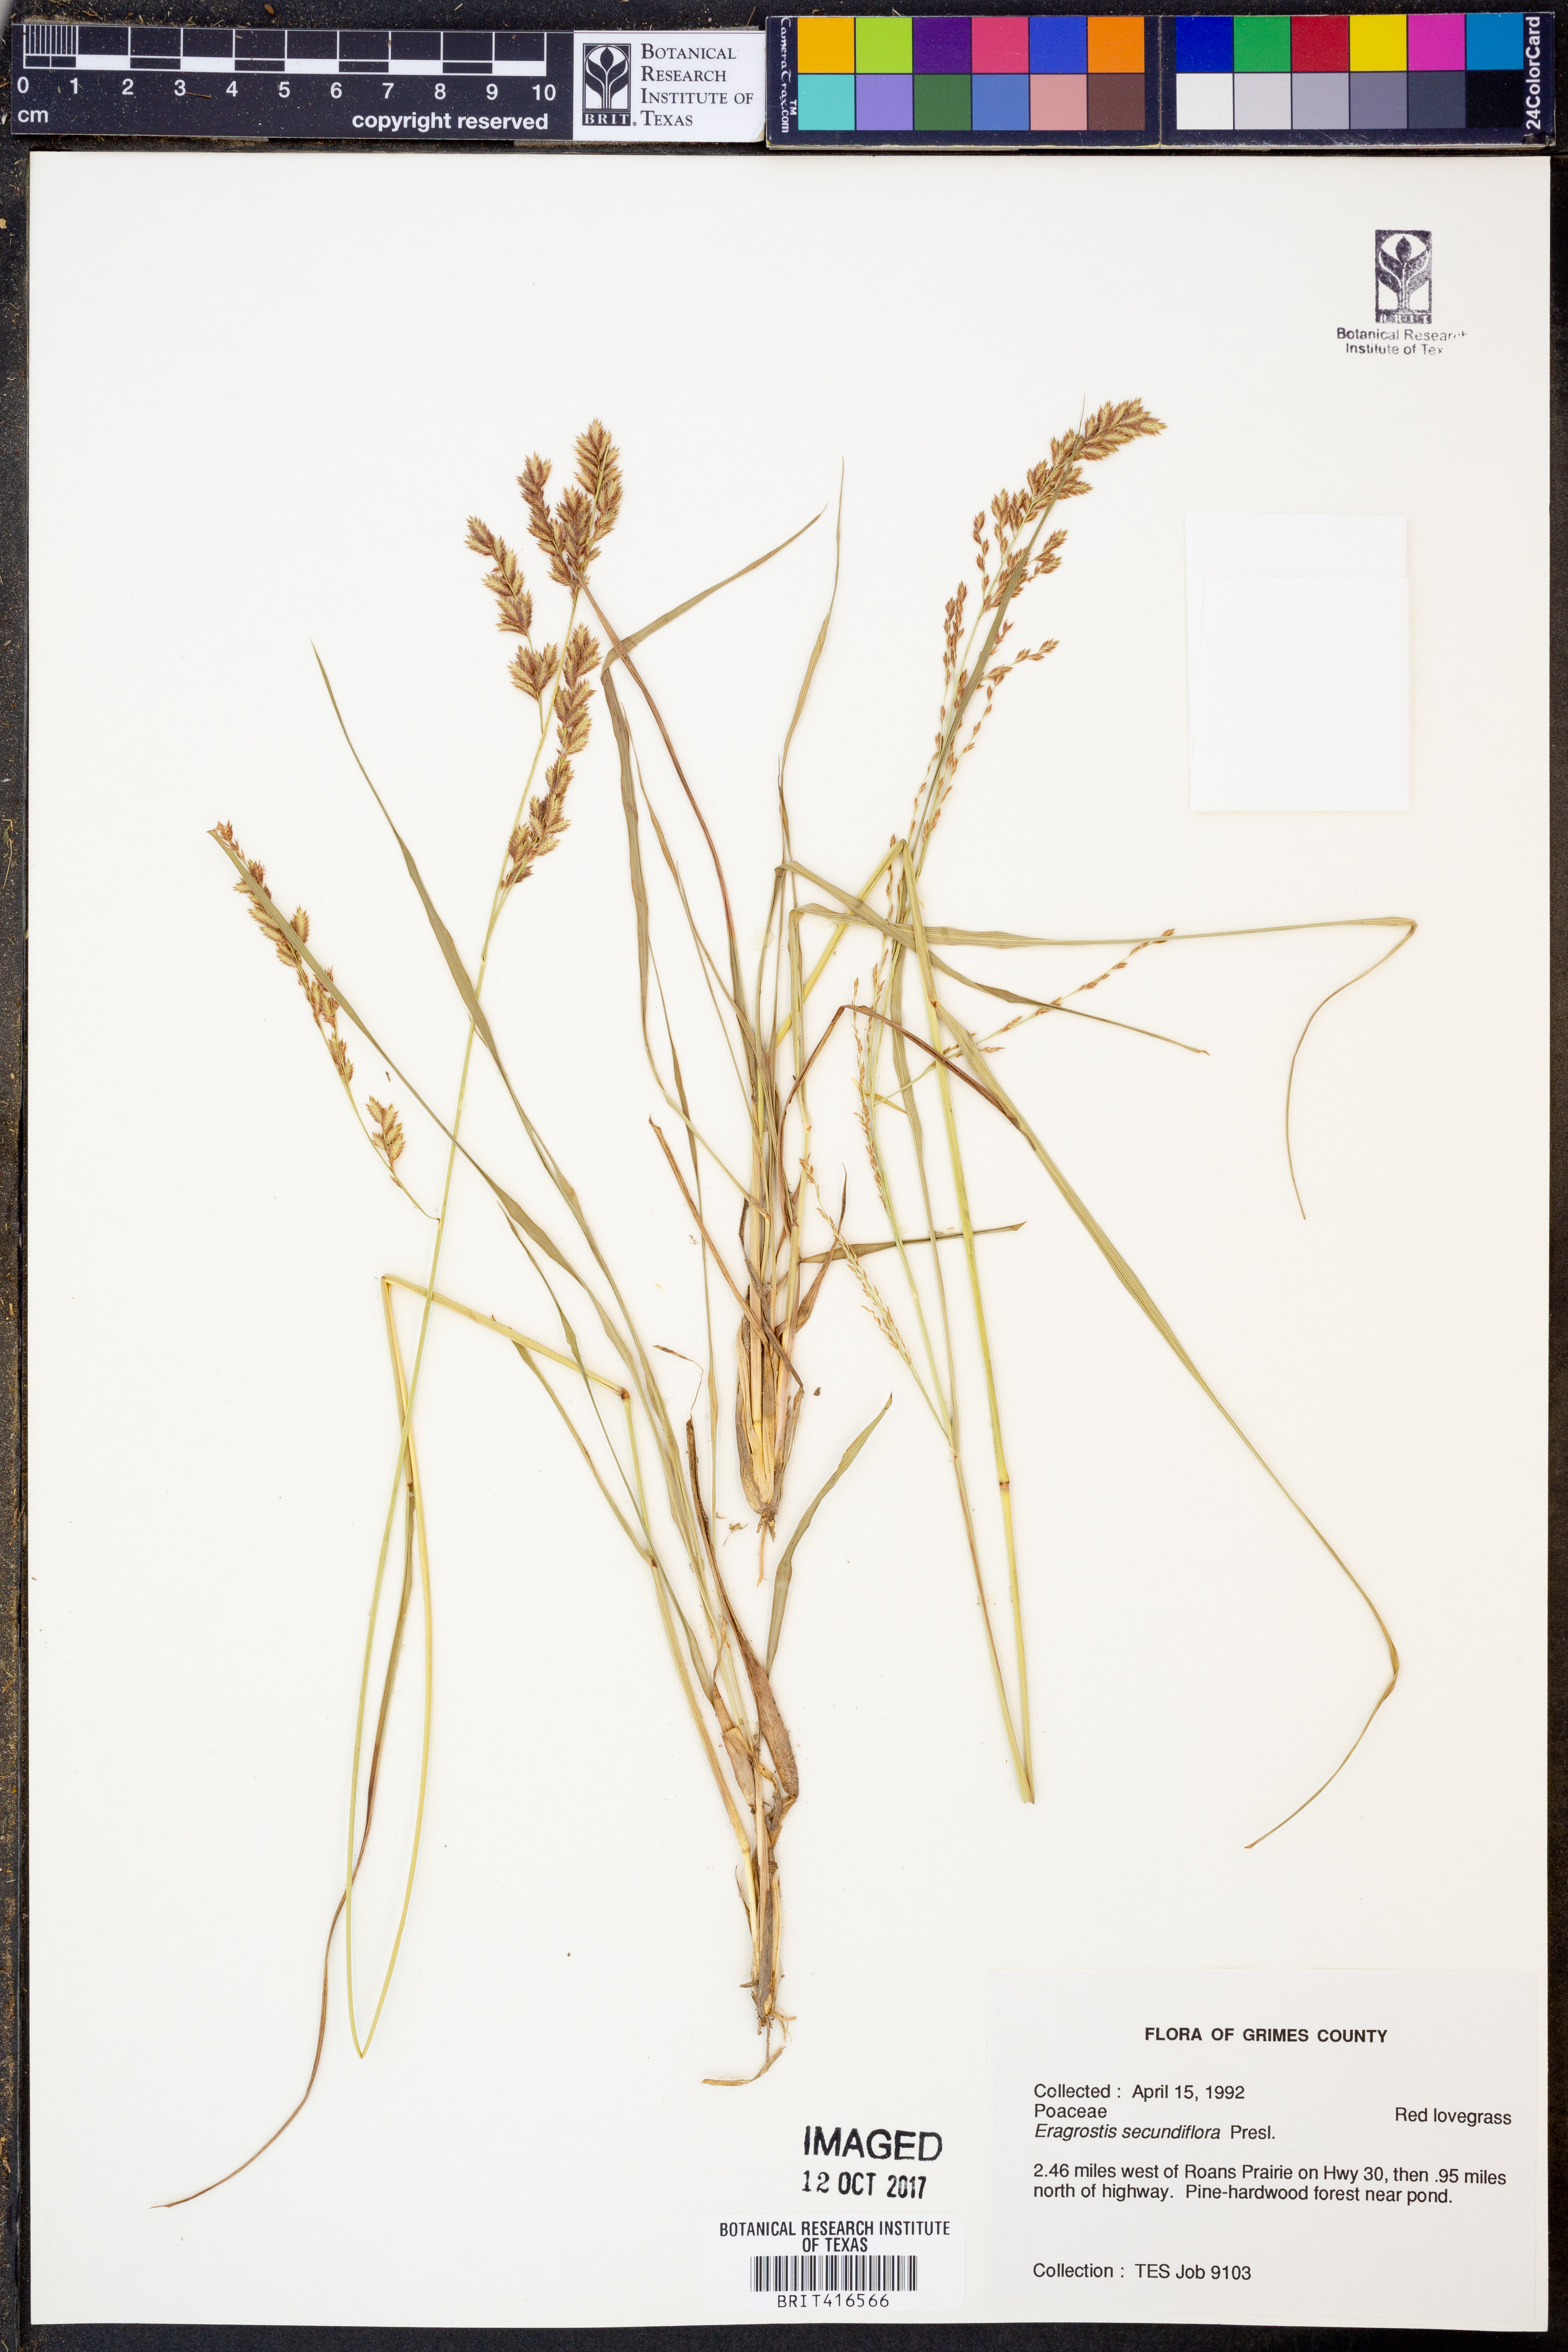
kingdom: Plantae
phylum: Tracheophyta
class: Liliopsida
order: Poales
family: Poaceae
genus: Eragrostis
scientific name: Eragrostis secundiflora
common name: Red love grass
